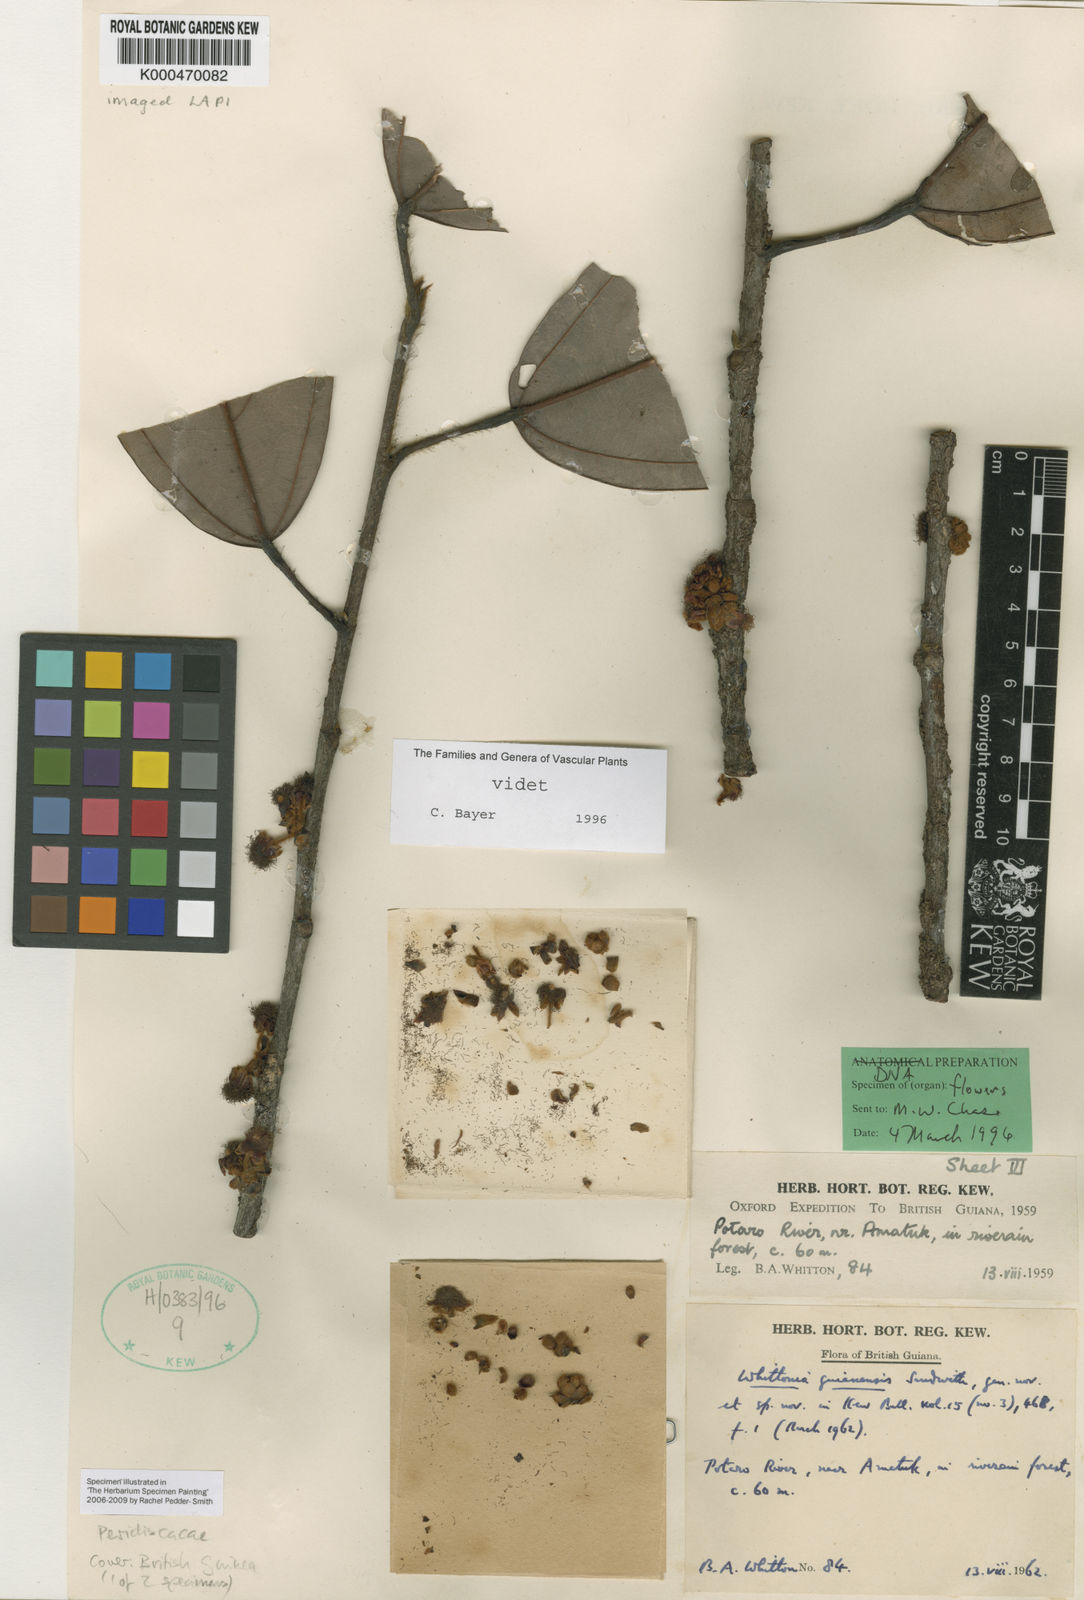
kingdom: Plantae
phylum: Tracheophyta
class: Magnoliopsida
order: Saxifragales
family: Peridiscaceae
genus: Whittonia
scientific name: Whittonia guianensis
